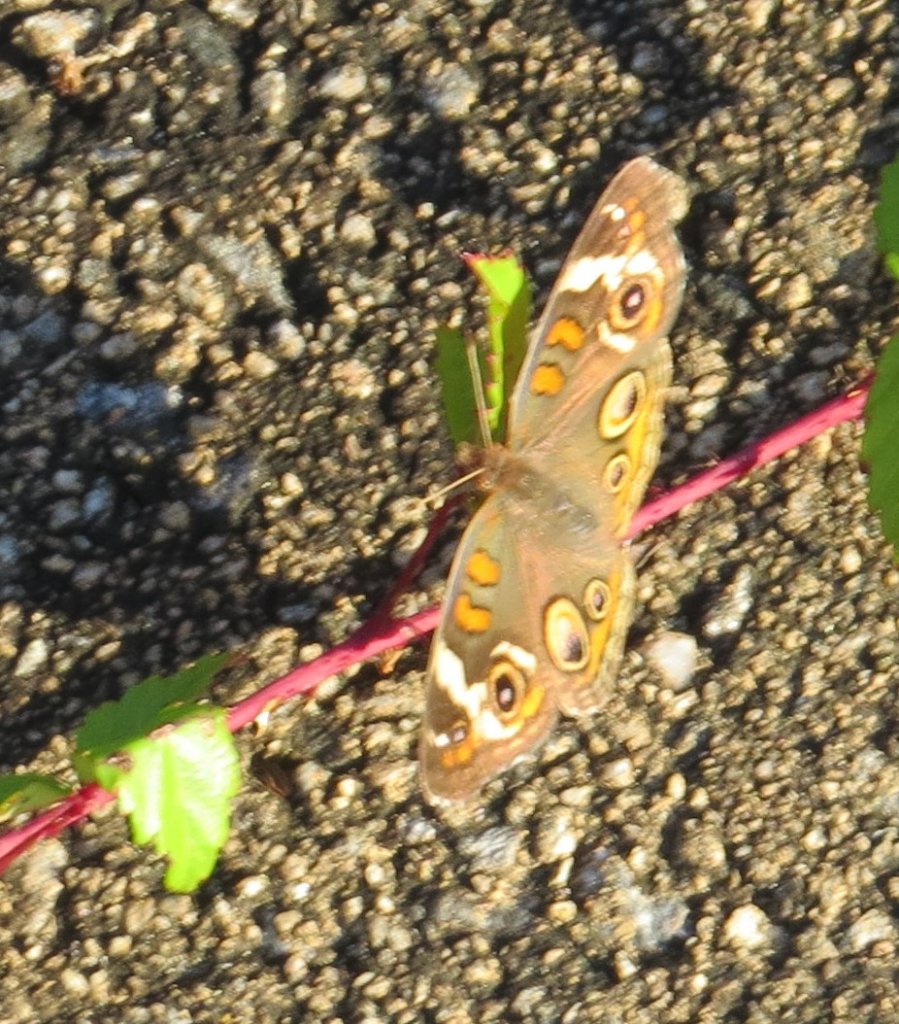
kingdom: Animalia
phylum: Arthropoda
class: Insecta
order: Lepidoptera
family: Nymphalidae
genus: Junonia
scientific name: Junonia coenia
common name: Common Buckeye
